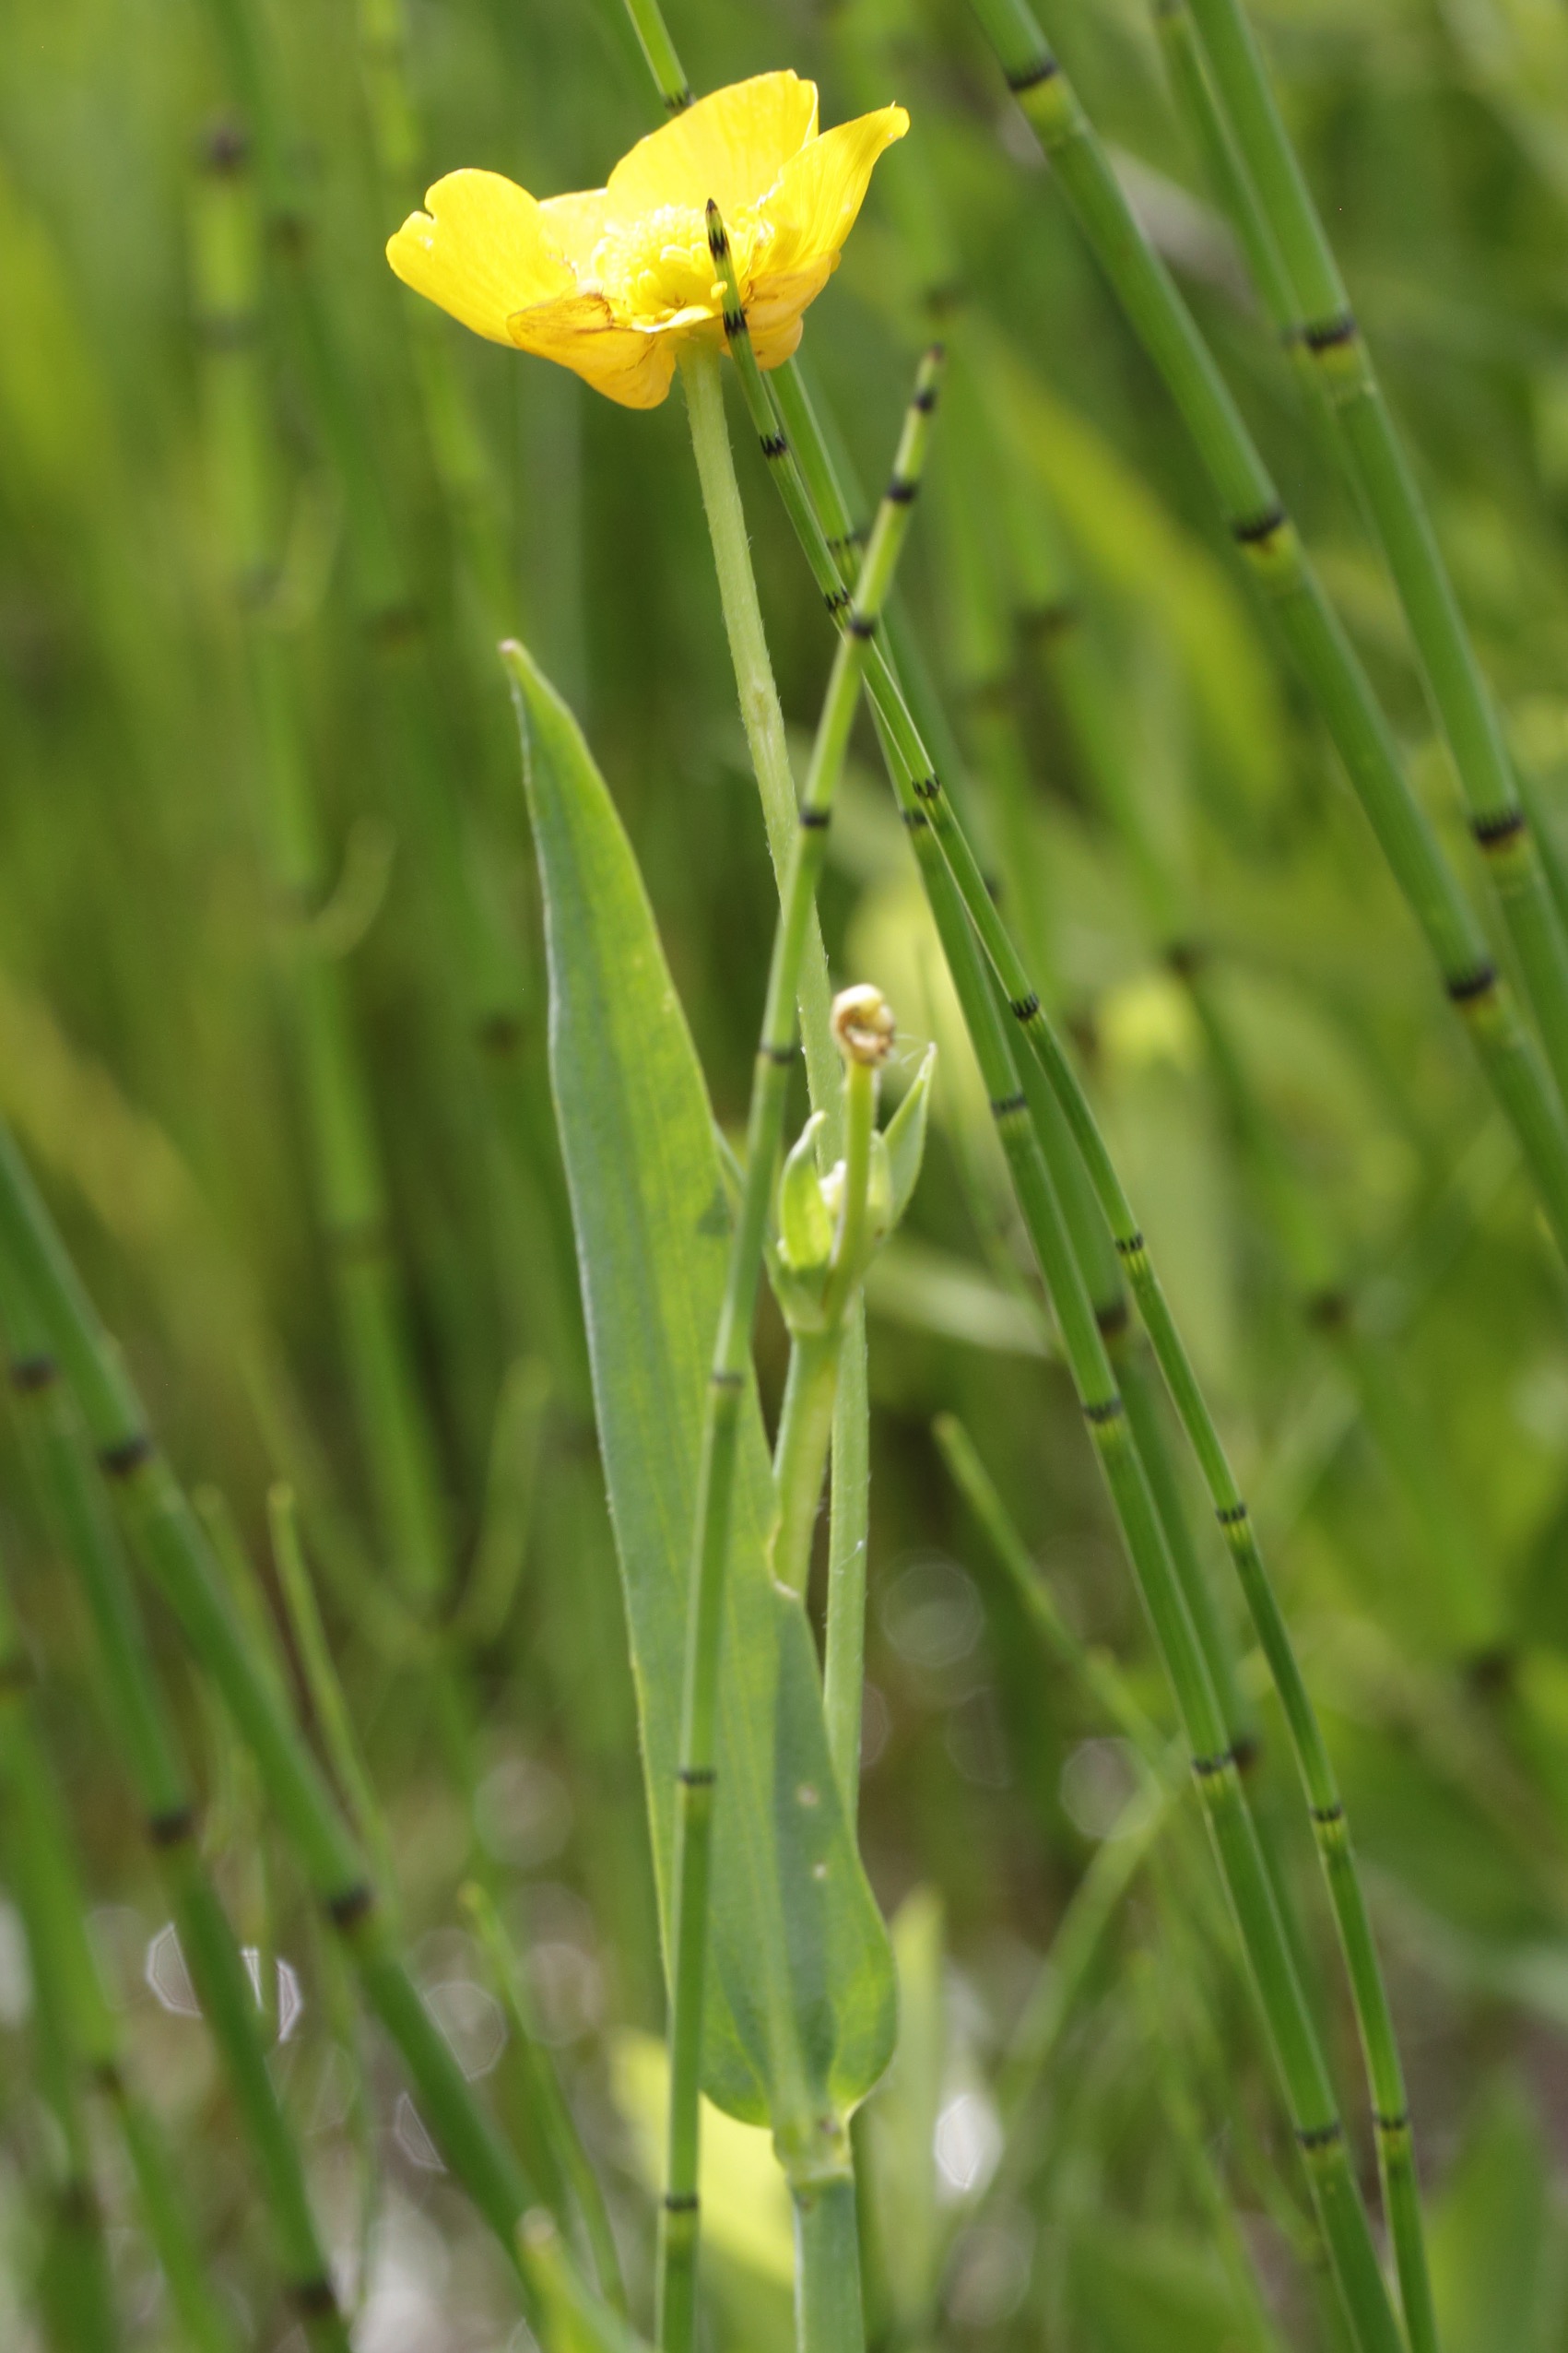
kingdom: Plantae
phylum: Tracheophyta
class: Magnoliopsida
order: Ranunculales
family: Ranunculaceae
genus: Ranunculus
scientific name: Ranunculus lingua
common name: Langbladet ranunkel
